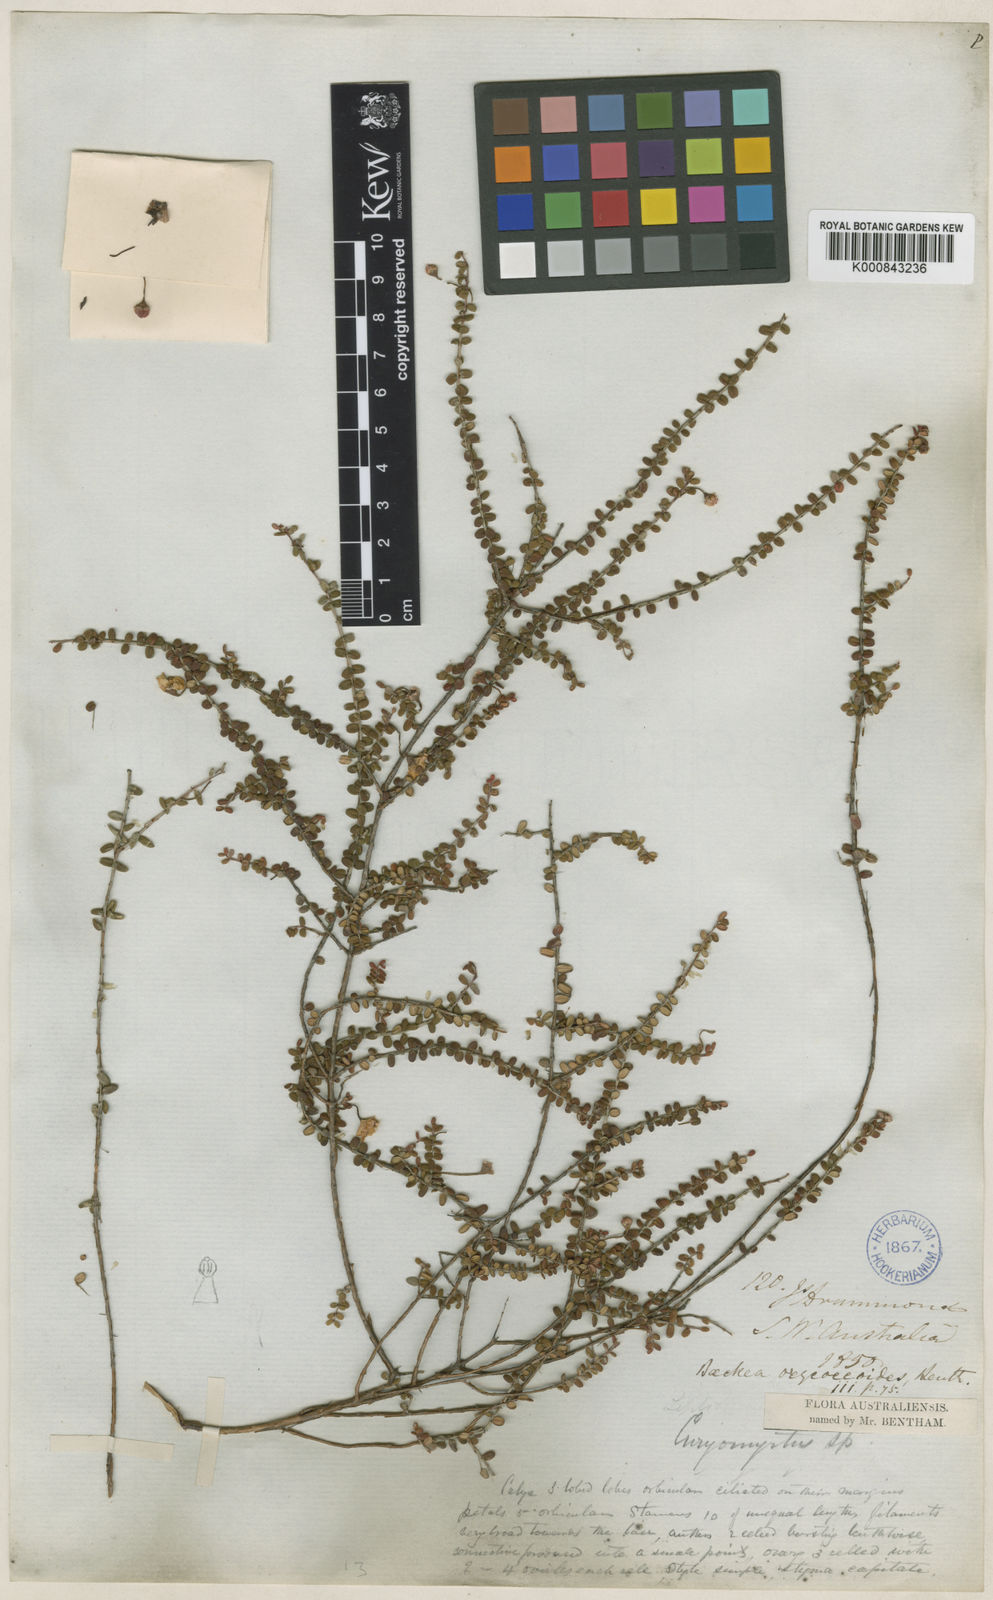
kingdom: Plantae
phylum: Tracheophyta
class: Magnoliopsida
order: Myrtales
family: Myrtaceae
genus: Rinzia
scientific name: Rinzia oxycoccoides
